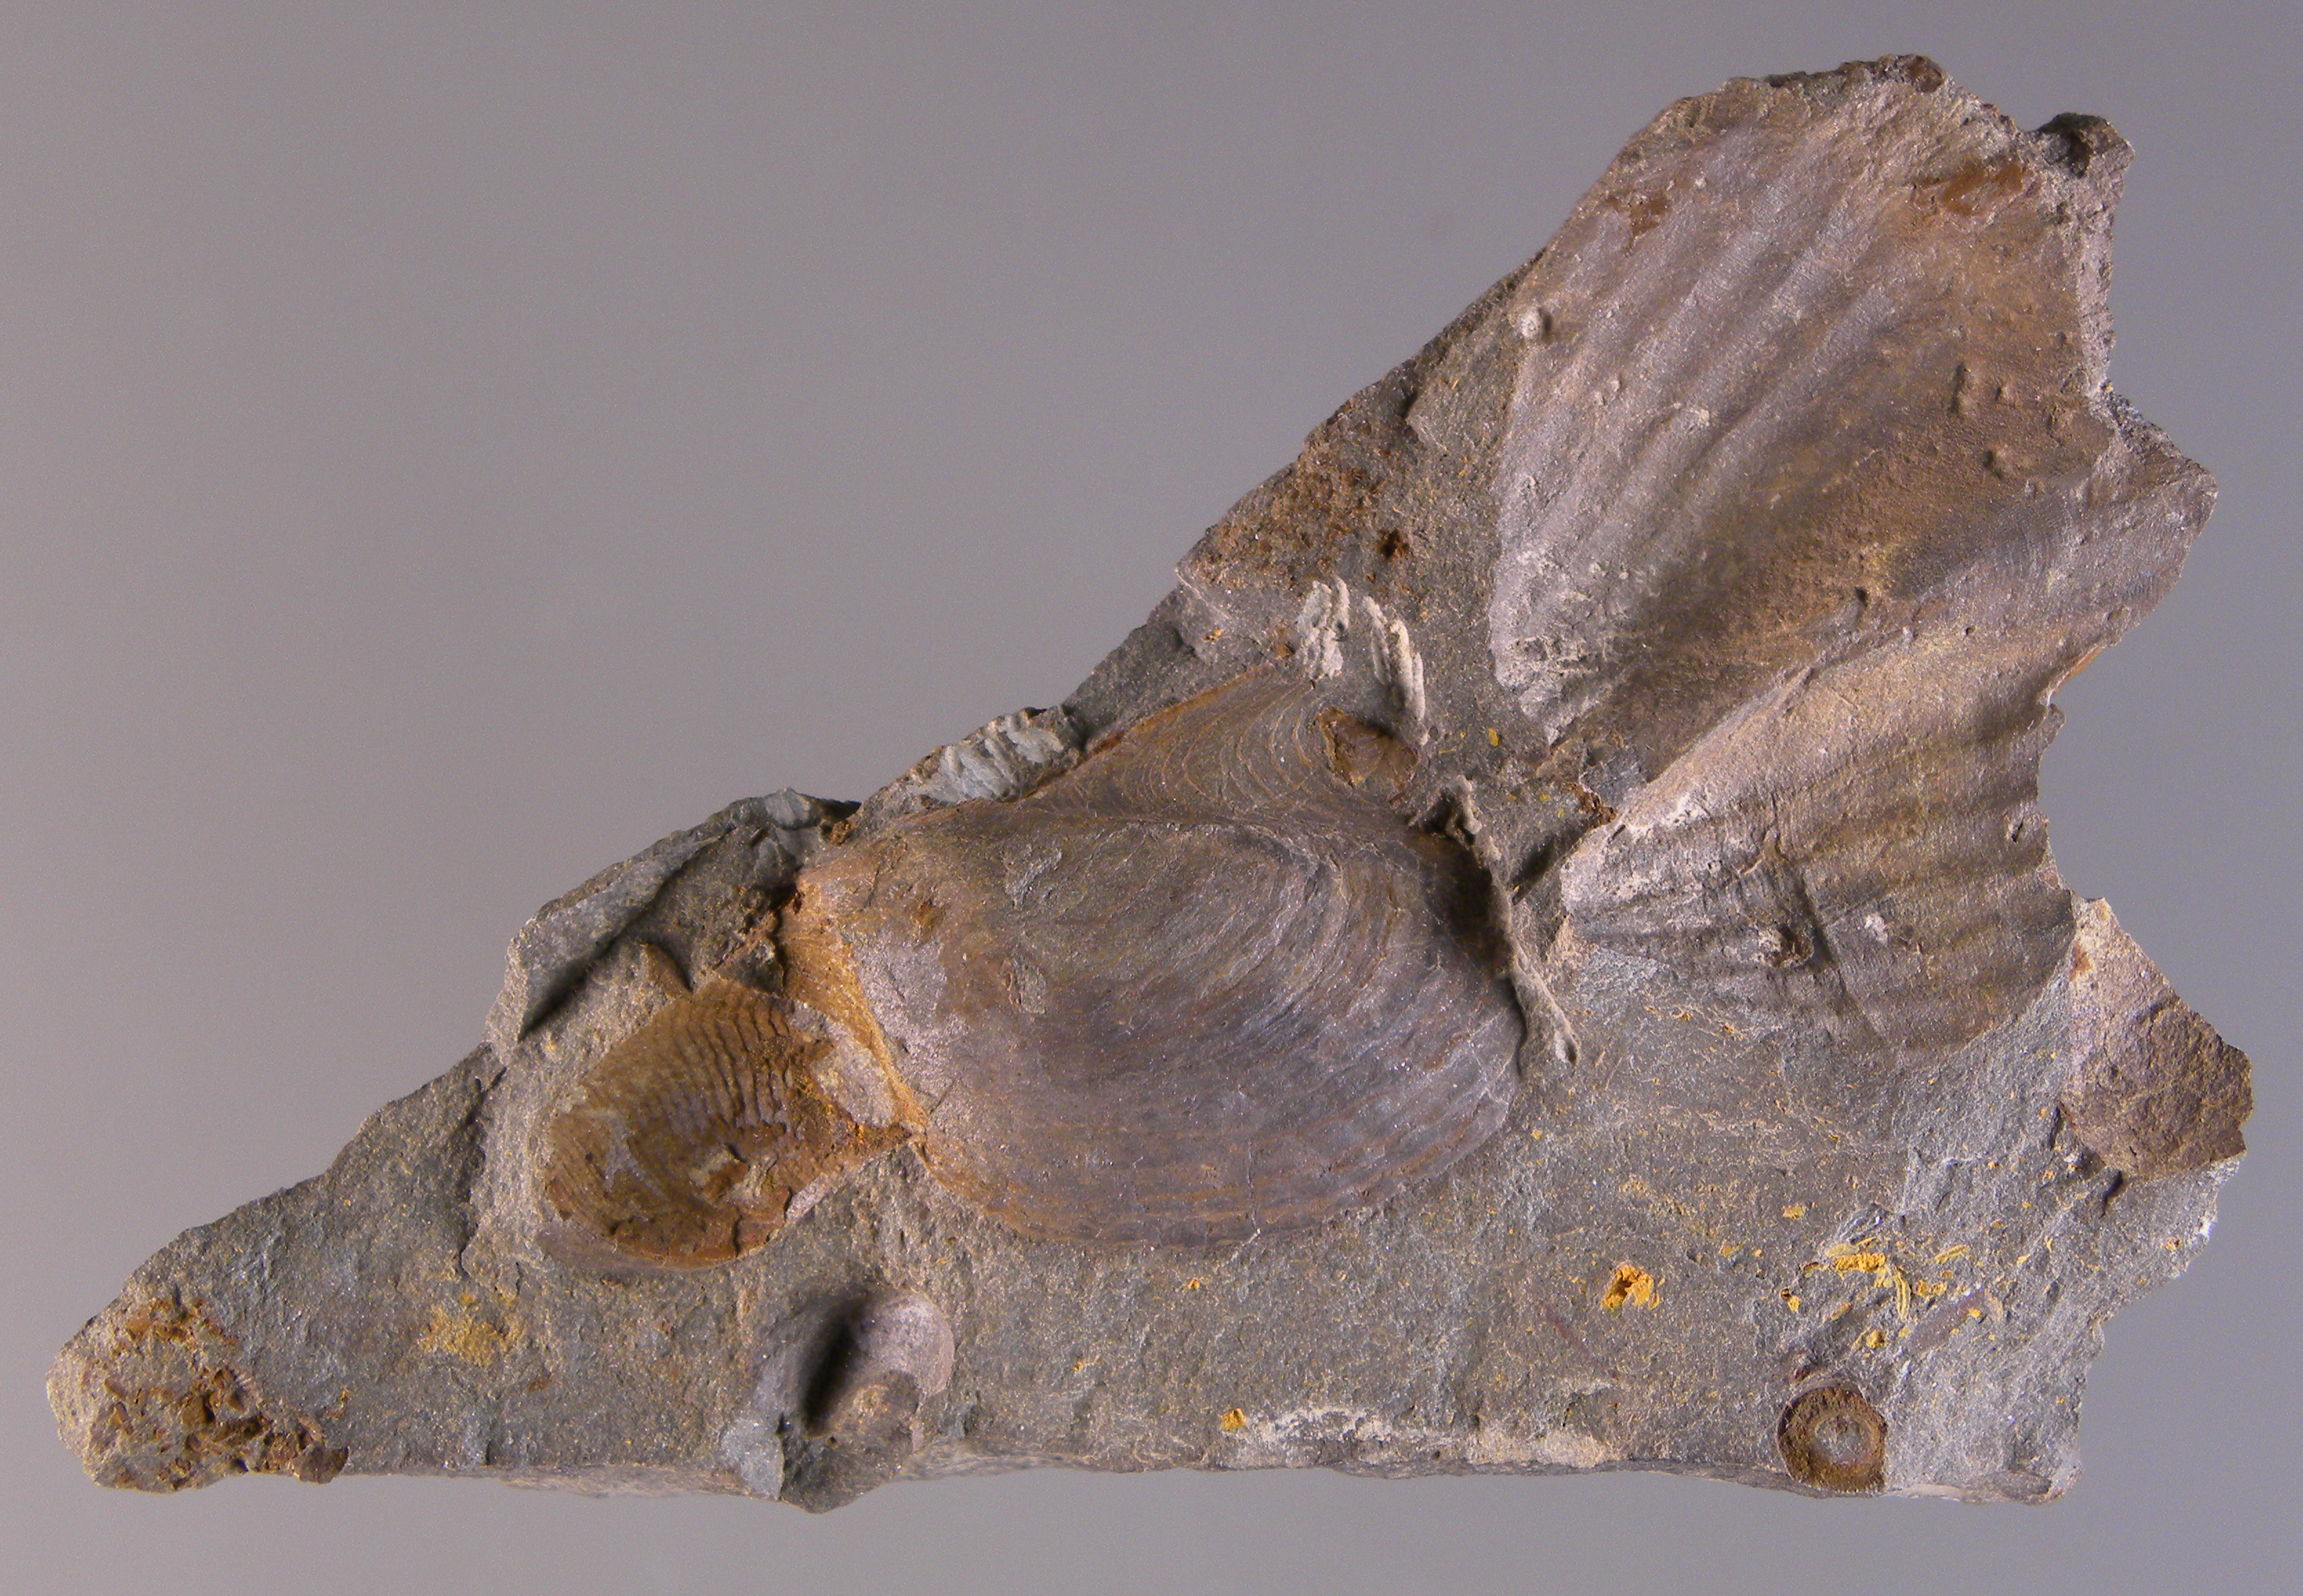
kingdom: Animalia
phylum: Mollusca
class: Bivalvia
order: Ostreida
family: Pterineidae
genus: Leptodesma
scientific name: Leptodesma
